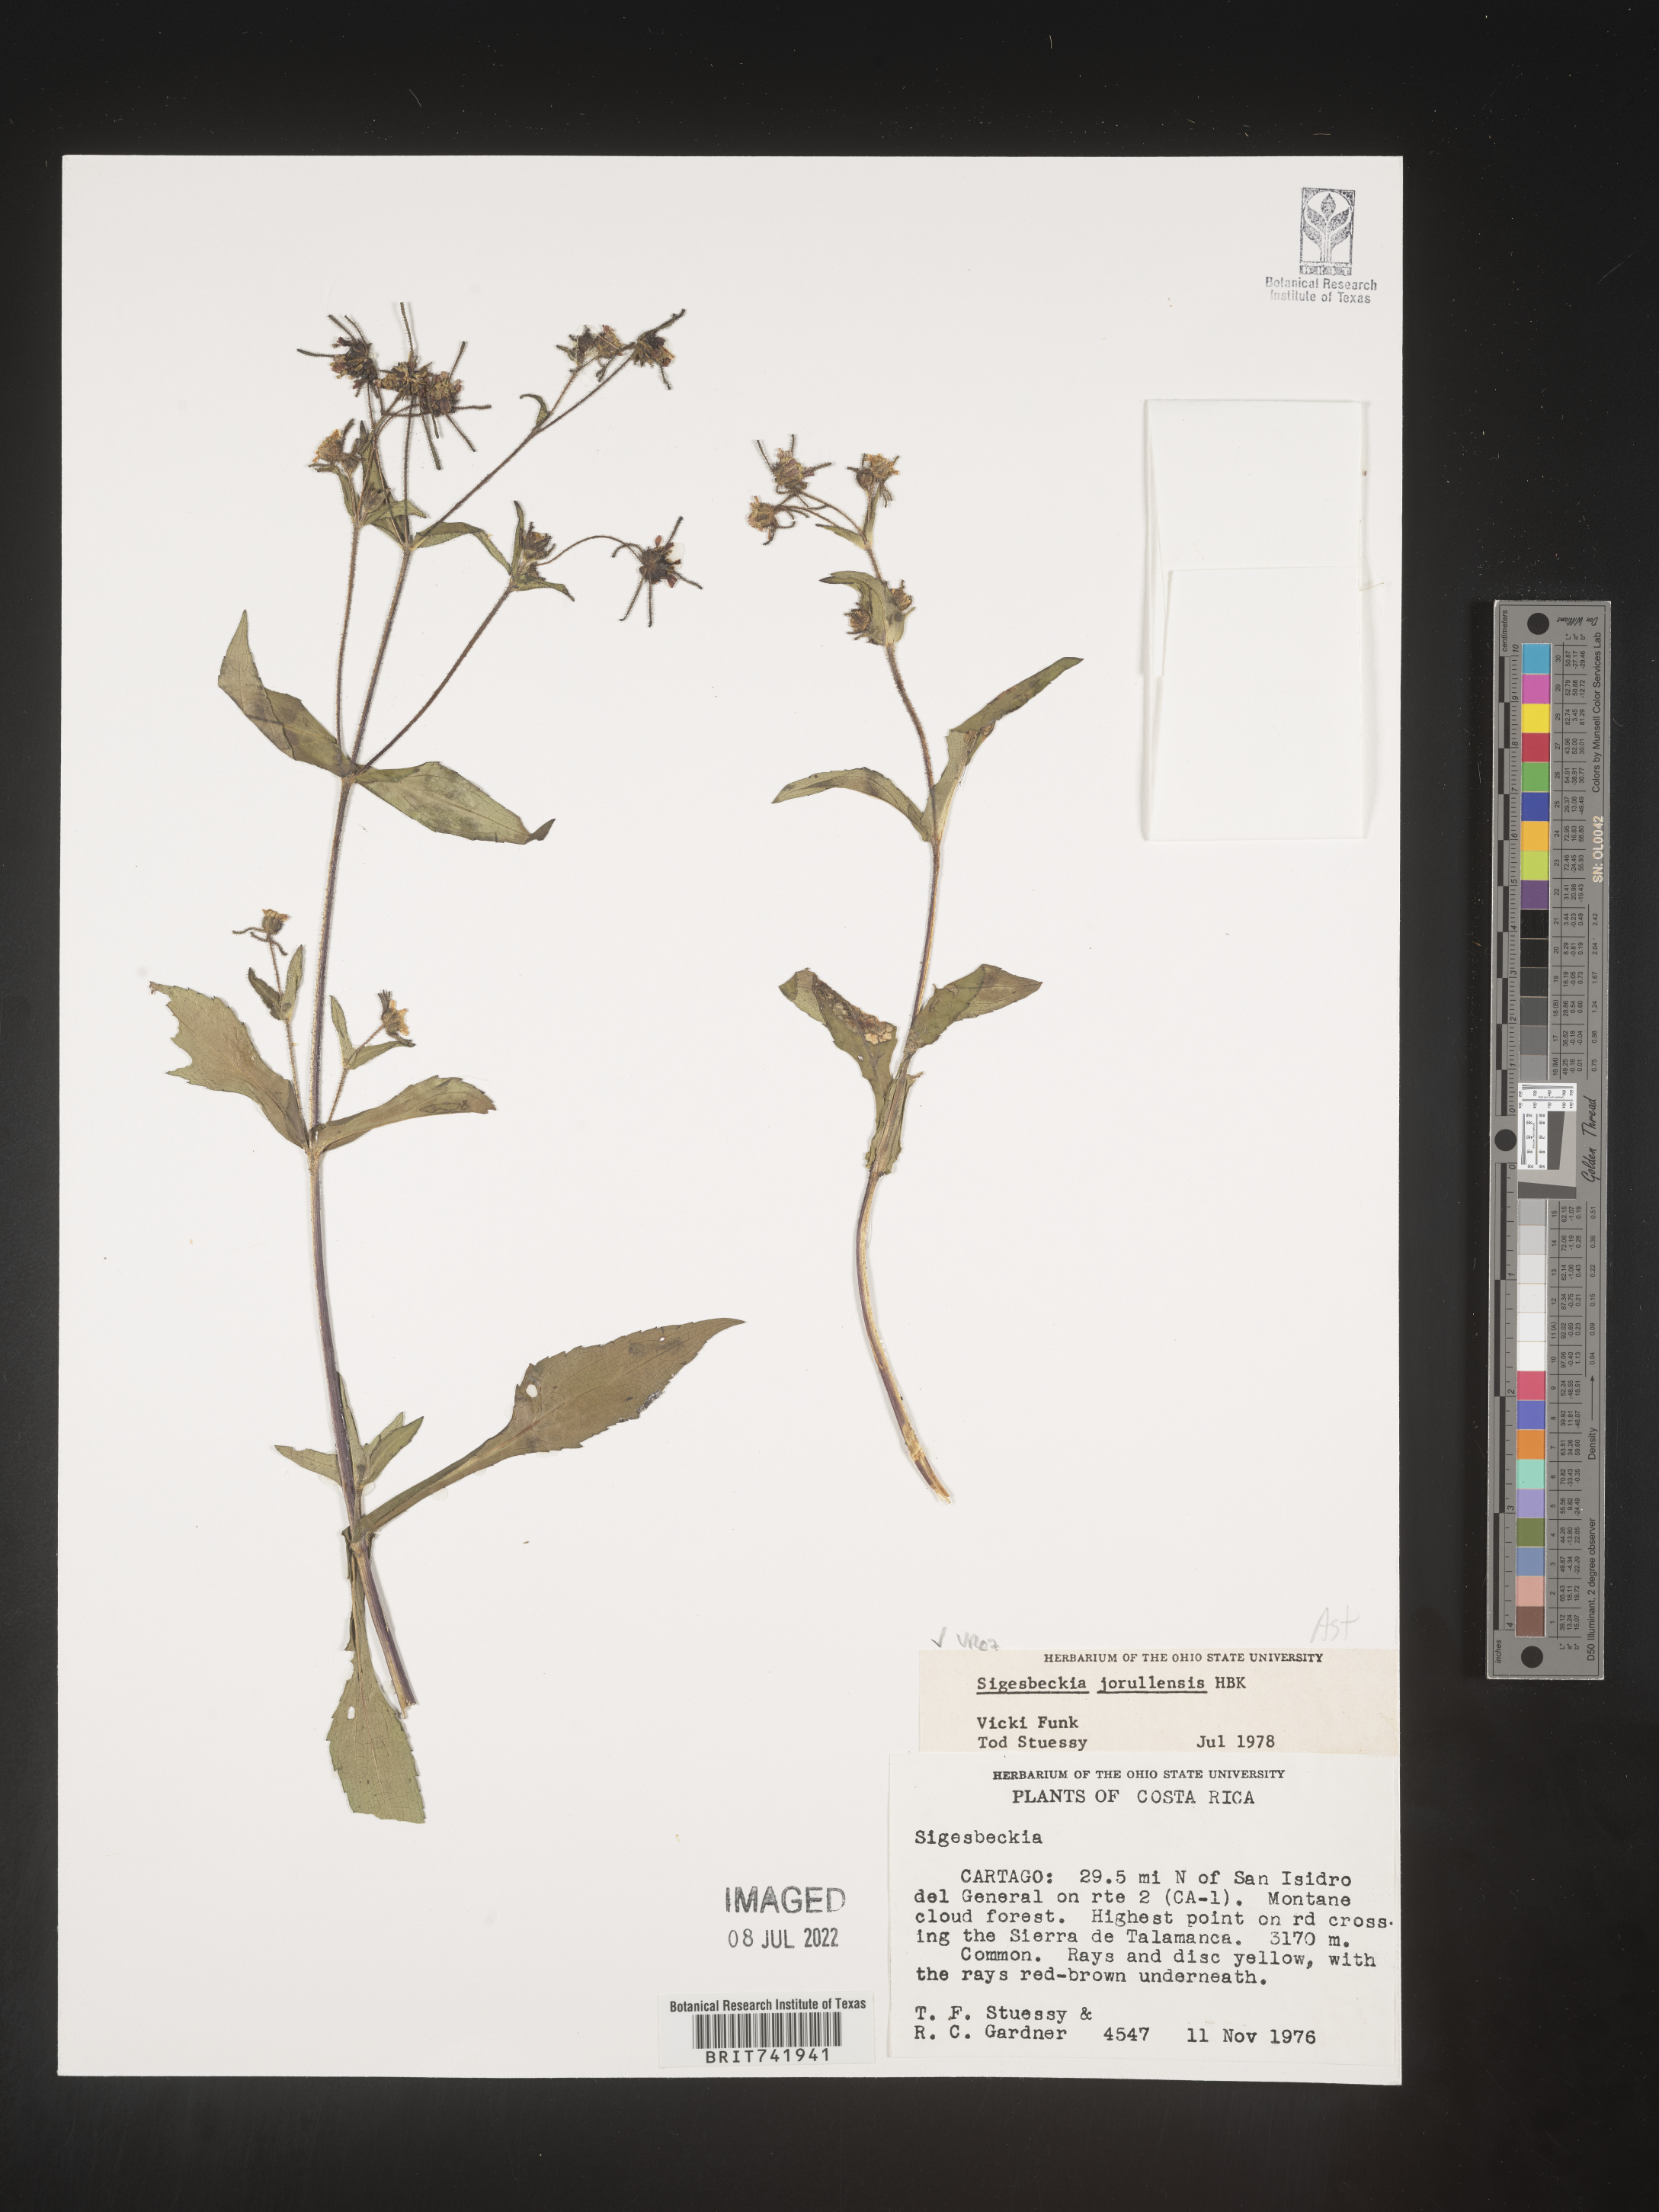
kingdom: Plantae
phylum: Tracheophyta
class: Magnoliopsida
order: Asterales
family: Asteraceae
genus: Sigesbeckia
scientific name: Sigesbeckia
